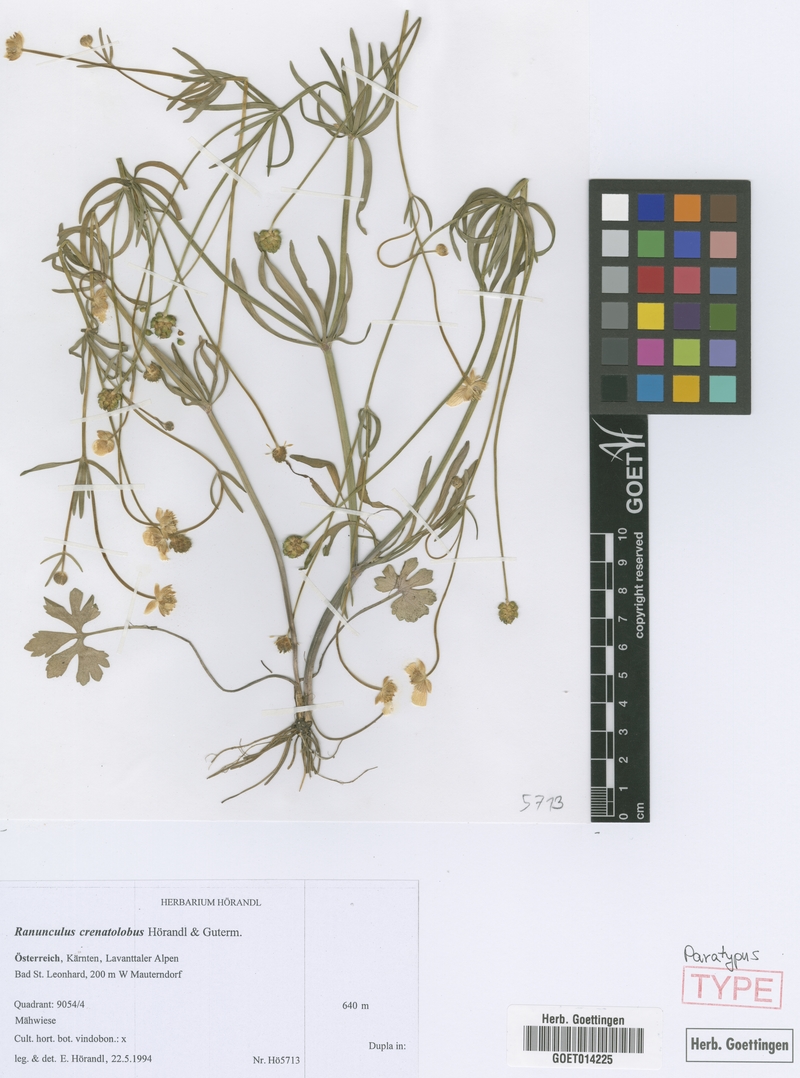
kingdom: Plantae
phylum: Tracheophyta
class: Magnoliopsida
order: Ranunculales
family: Ranunculaceae
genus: Ranunculus
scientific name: Ranunculus crenatolobus
